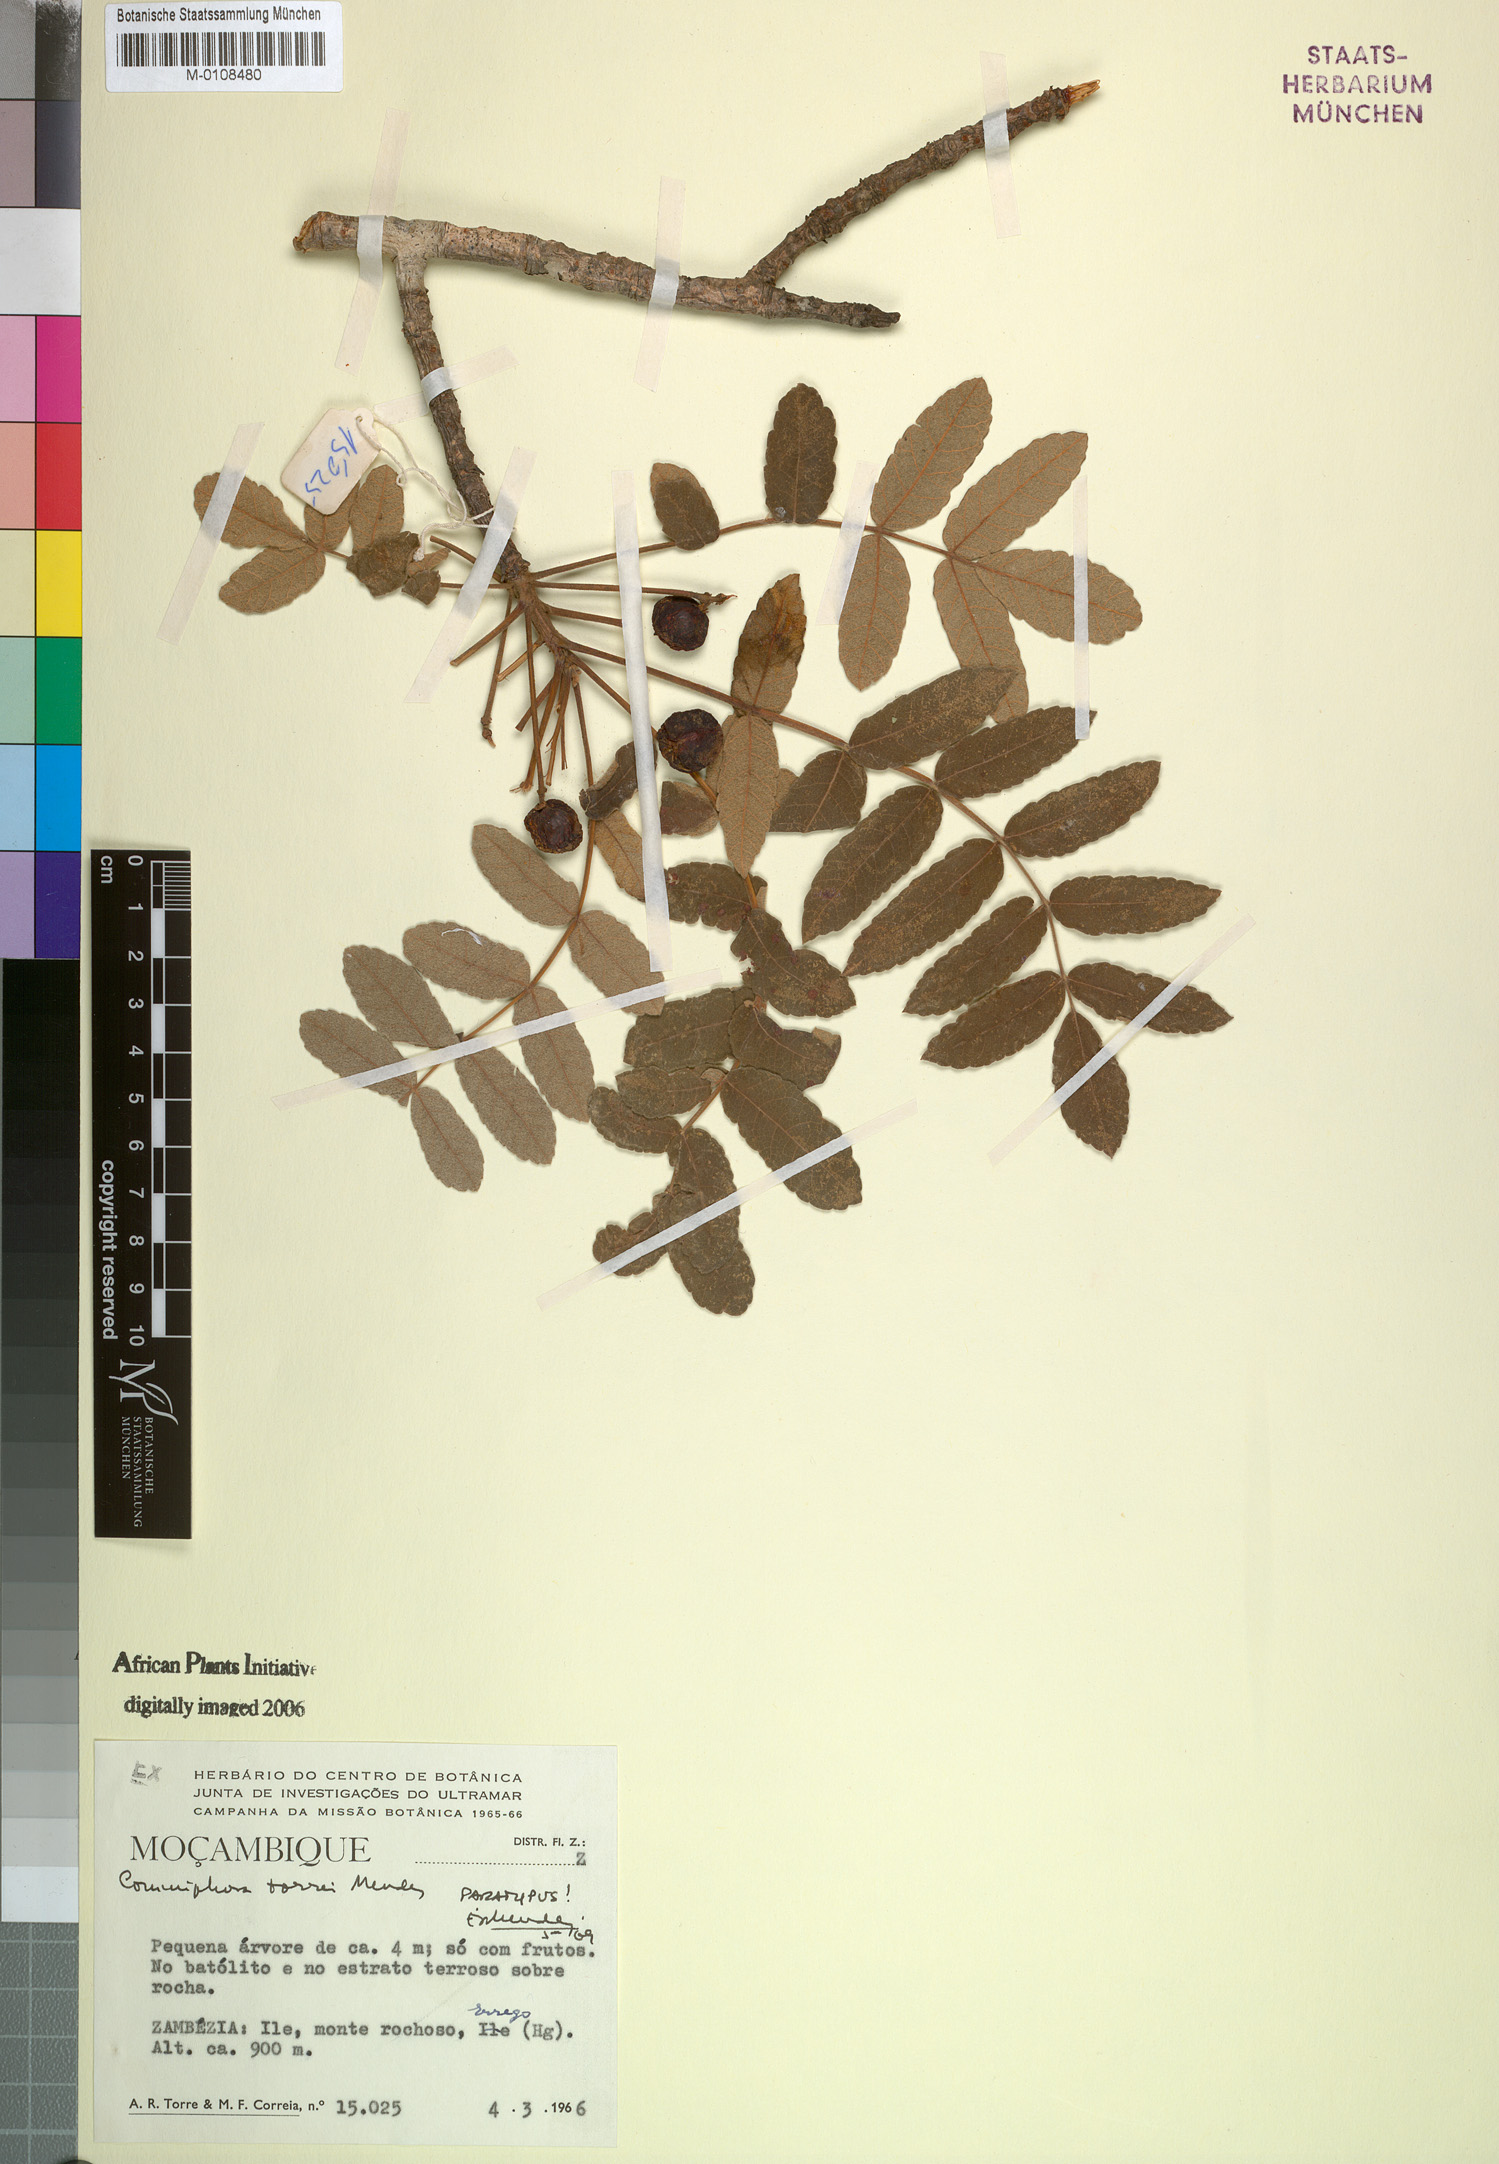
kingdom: Plantae
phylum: Tracheophyta
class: Magnoliopsida
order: Sapindales
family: Burseraceae
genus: Commiphora
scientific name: Commiphora fulvotomentosa
